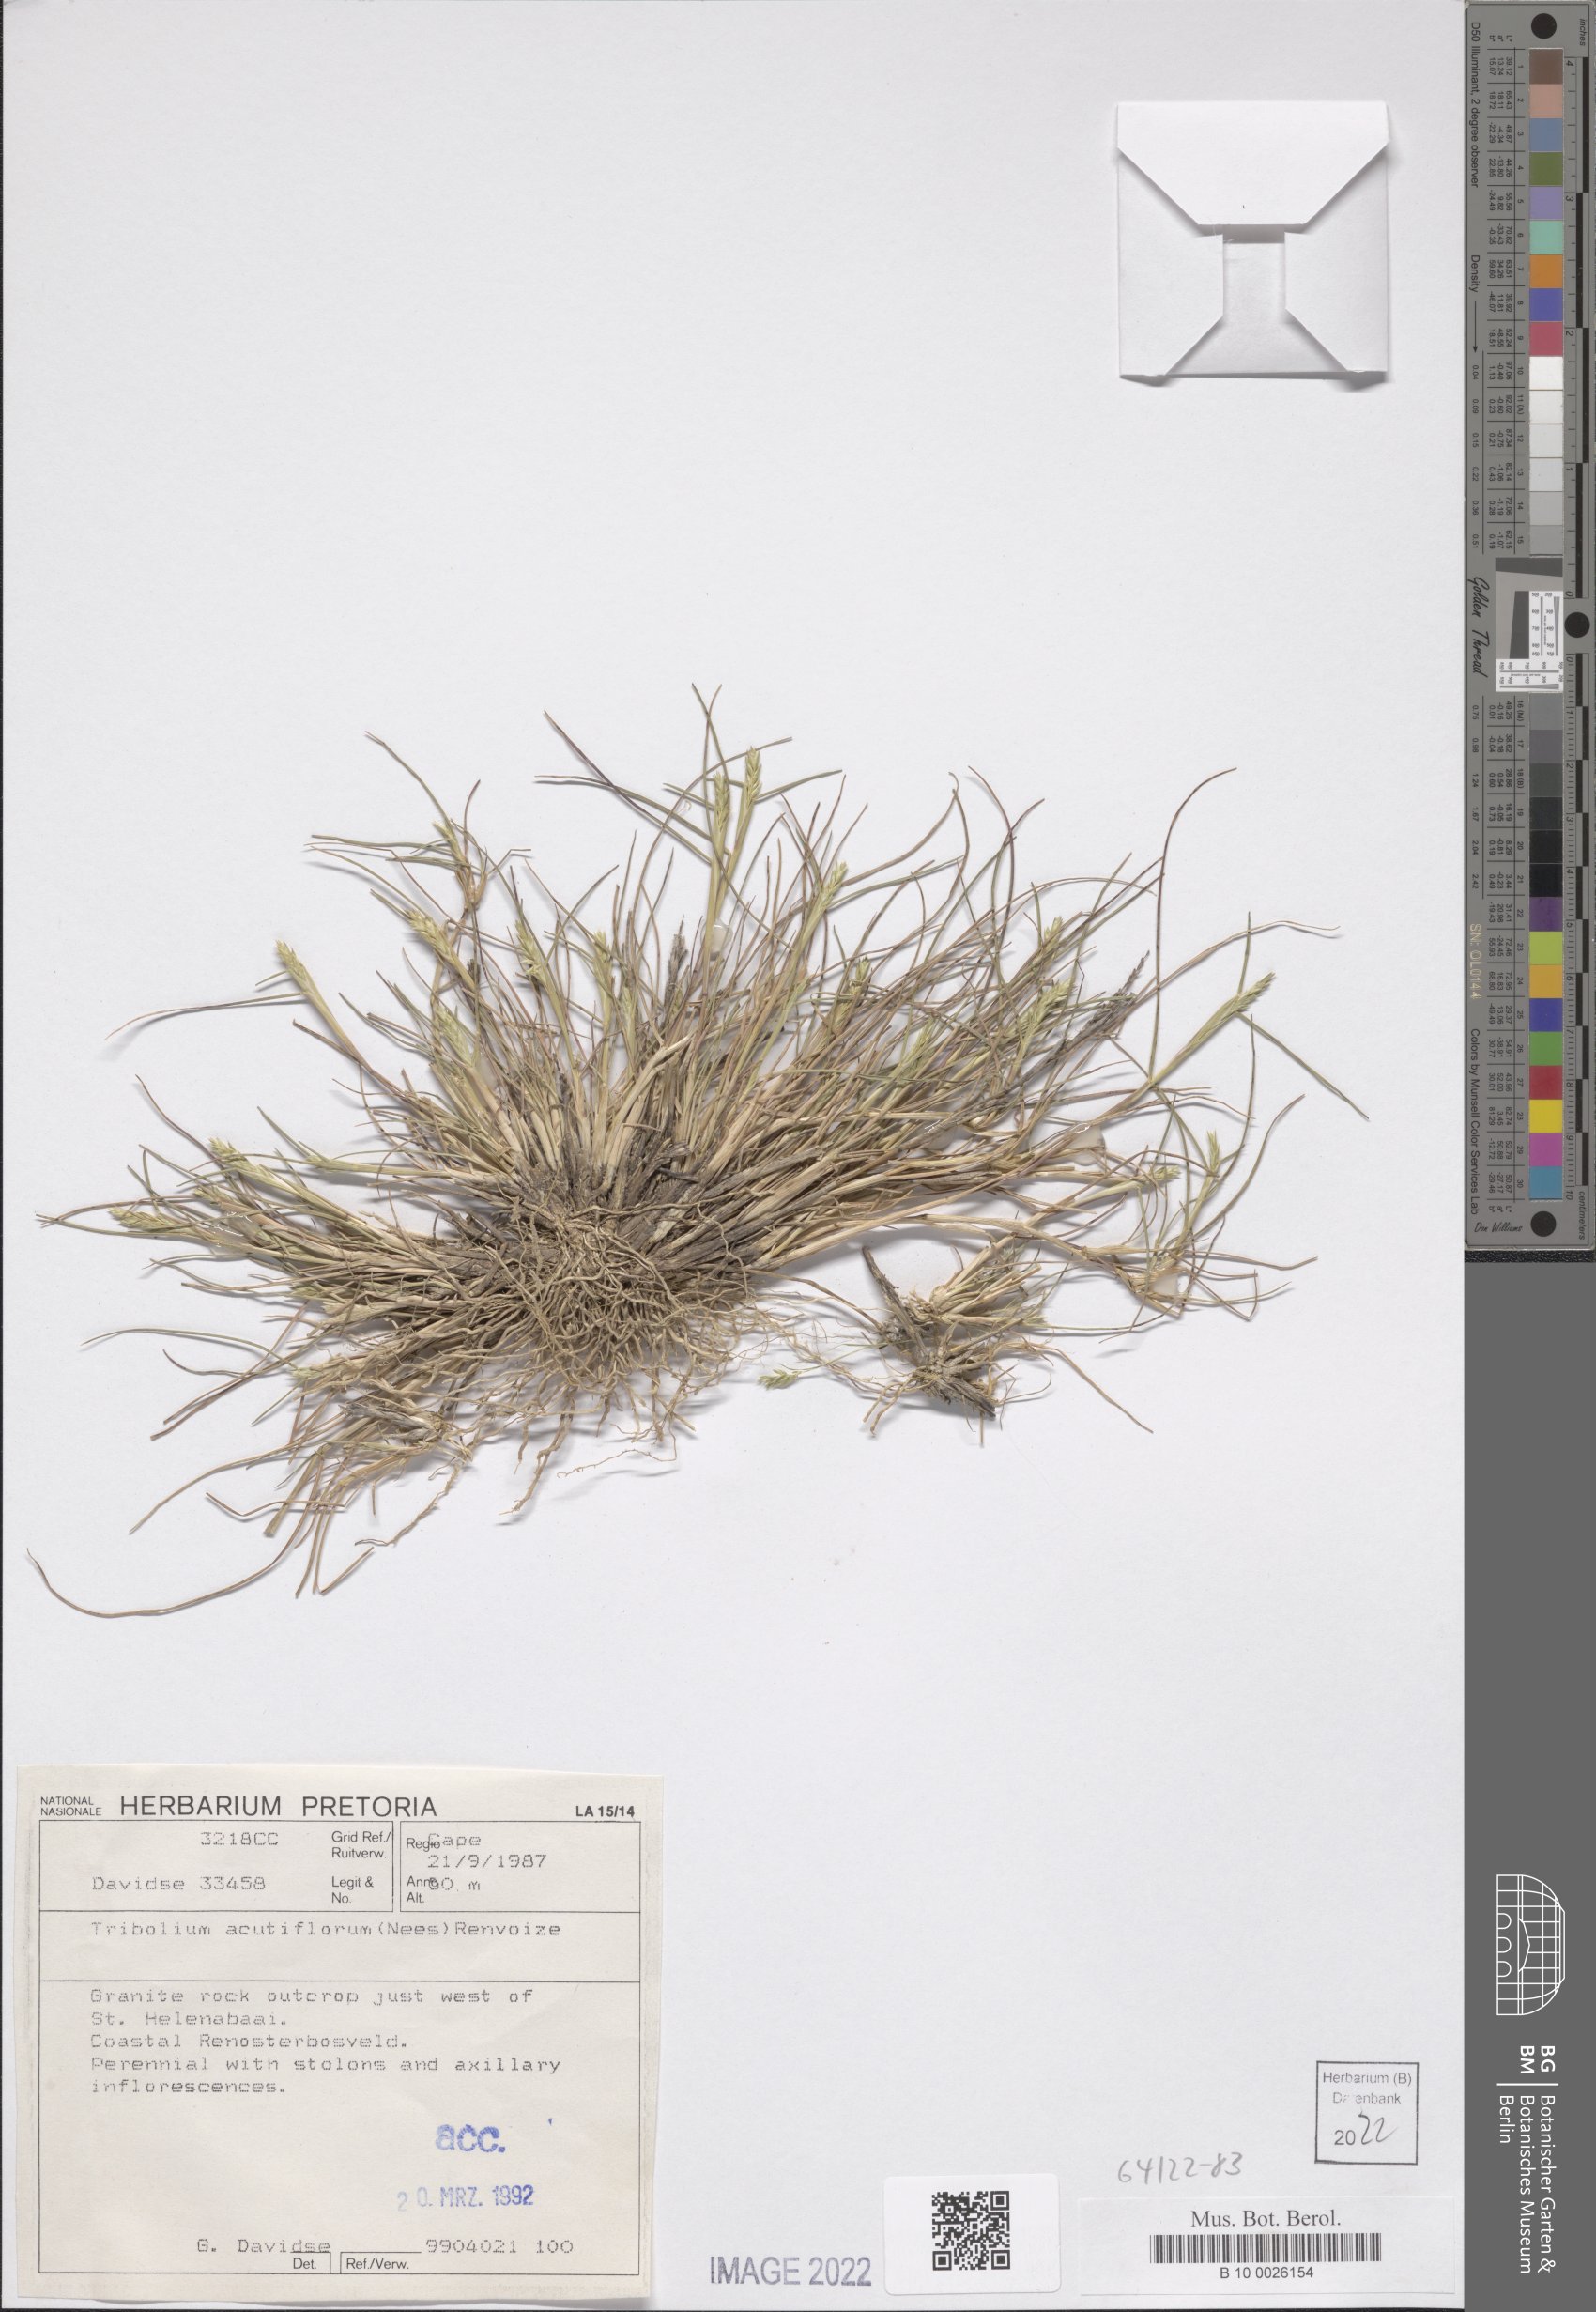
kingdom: Plantae
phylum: Tracheophyta
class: Liliopsida
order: Poales
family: Poaceae
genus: Tribolium
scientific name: Tribolium acutiflorum
